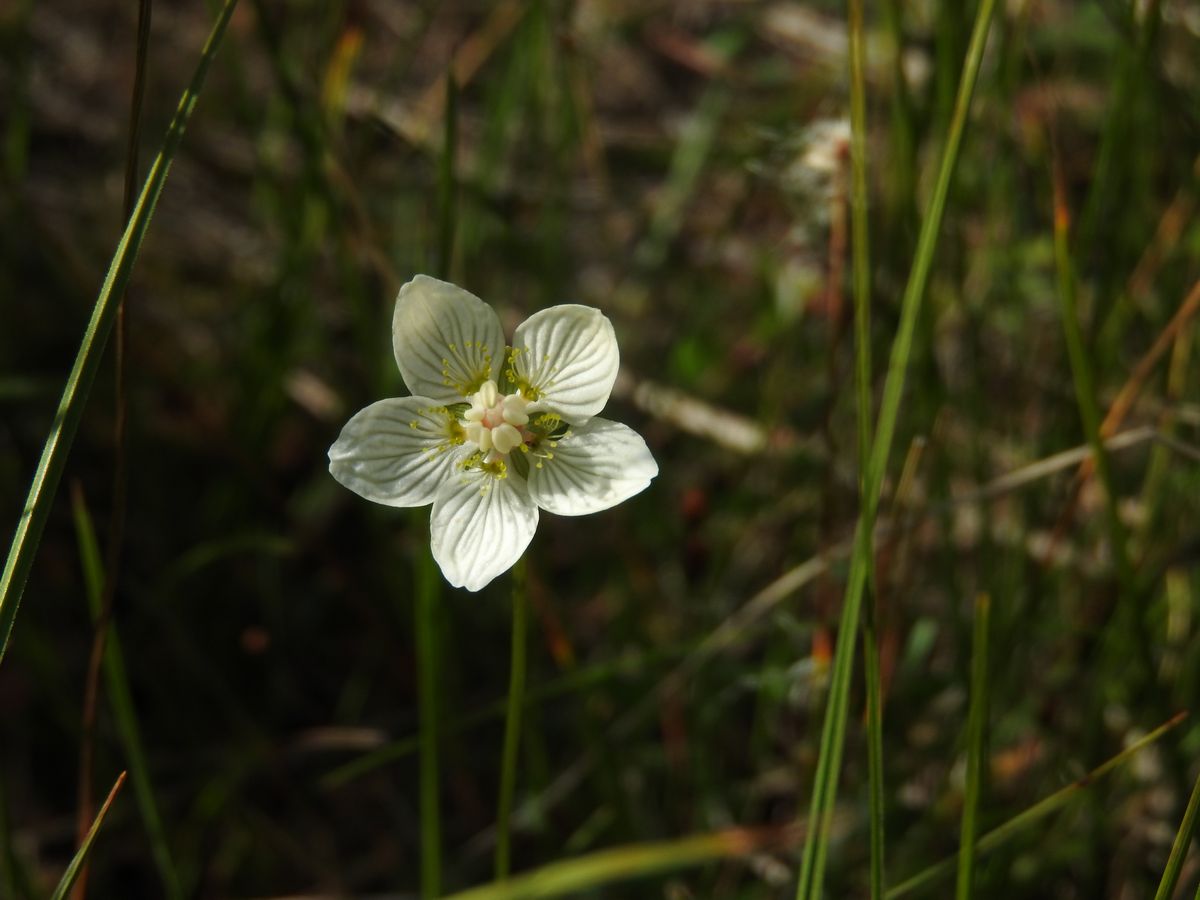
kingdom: Plantae
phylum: Tracheophyta
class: Magnoliopsida
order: Celastrales
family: Parnassiaceae
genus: Parnassia
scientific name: Parnassia palustris
